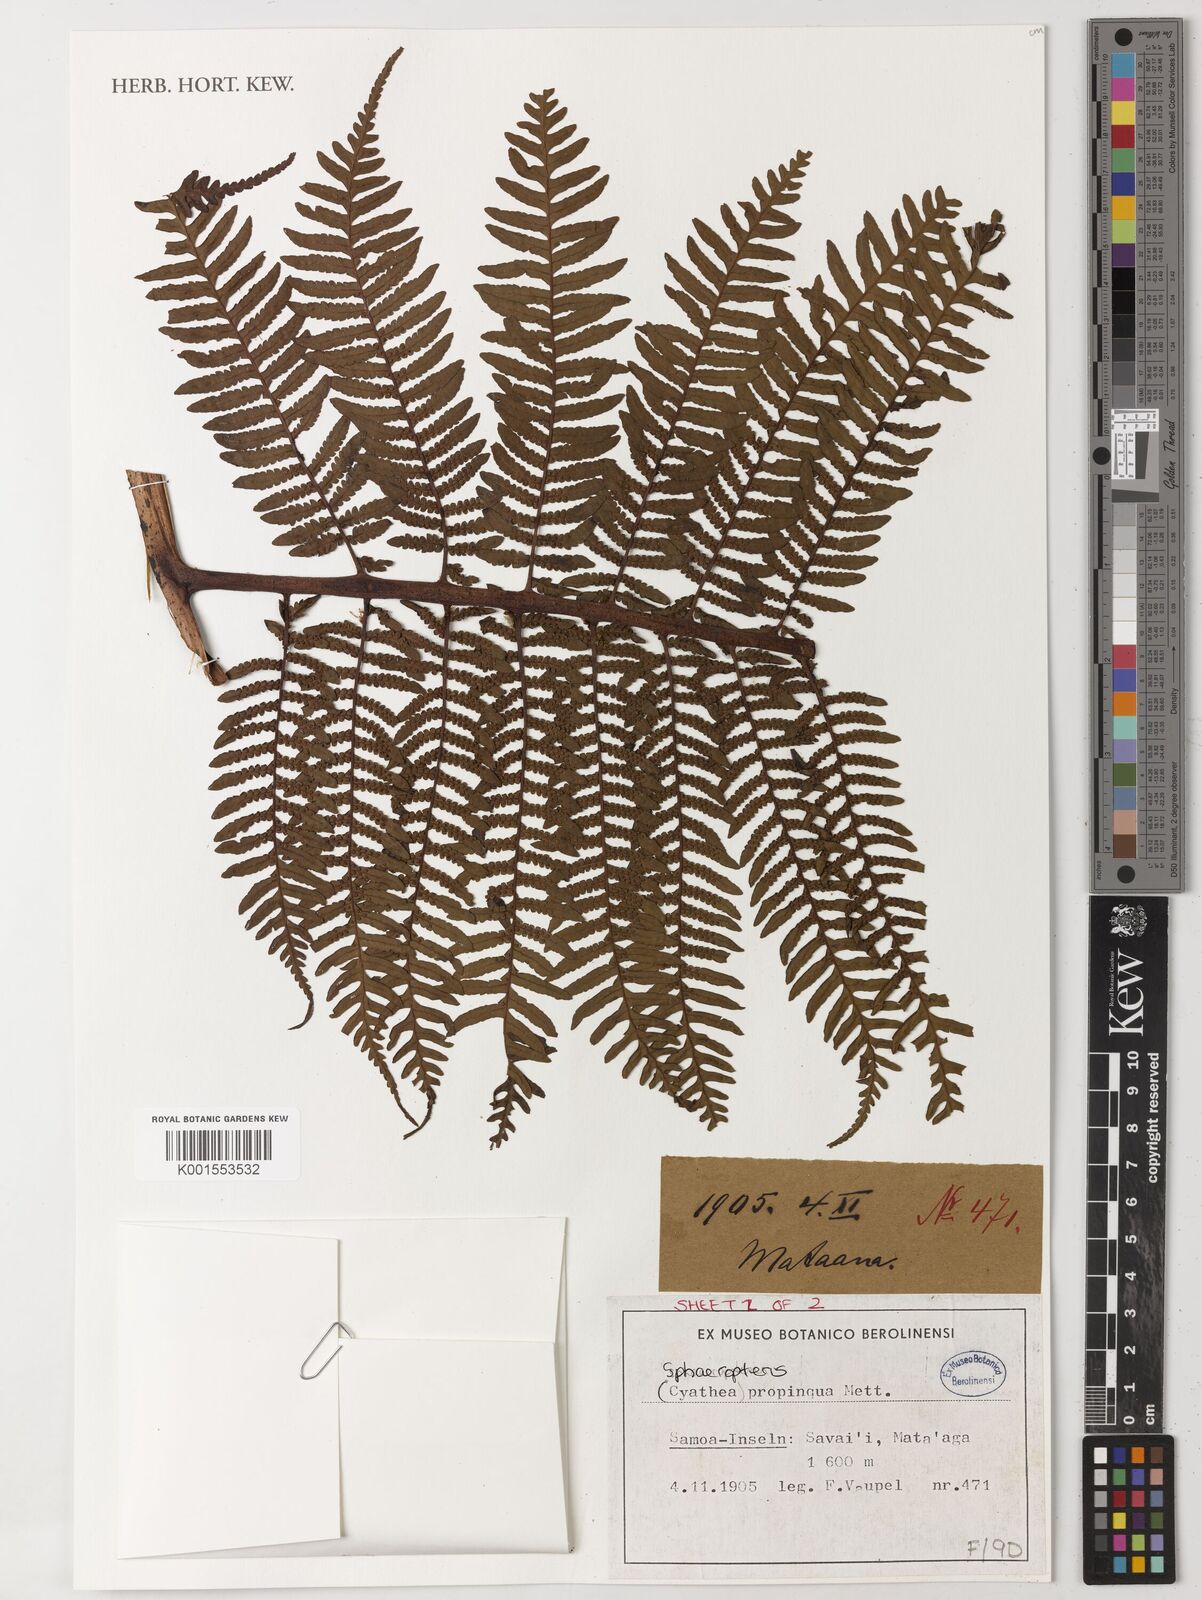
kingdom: Plantae
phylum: Tracheophyta
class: Polypodiopsida
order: Cyatheales
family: Cyatheaceae
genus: Sphaeropteris
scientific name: Sphaeropteris propinqua
